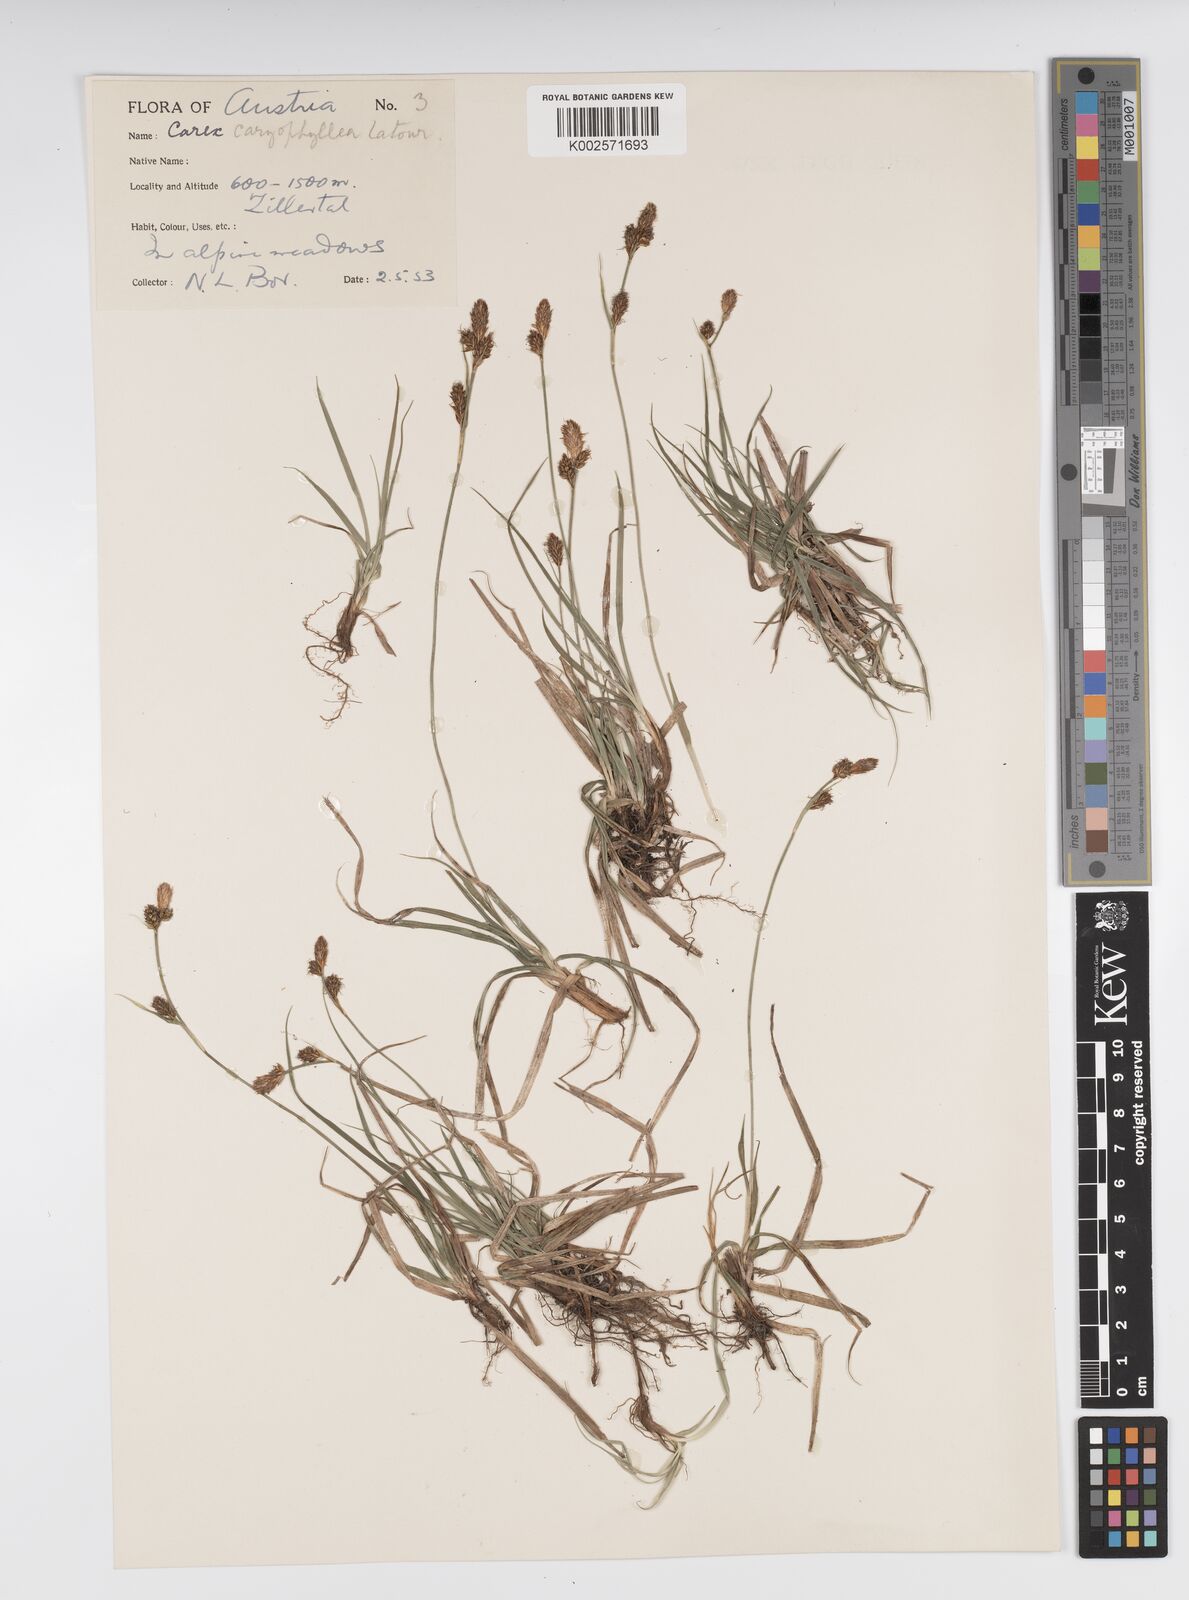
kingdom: Plantae
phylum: Tracheophyta
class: Liliopsida
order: Poales
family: Cyperaceae
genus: Carex
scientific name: Carex caryophyllea
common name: Spring sedge
